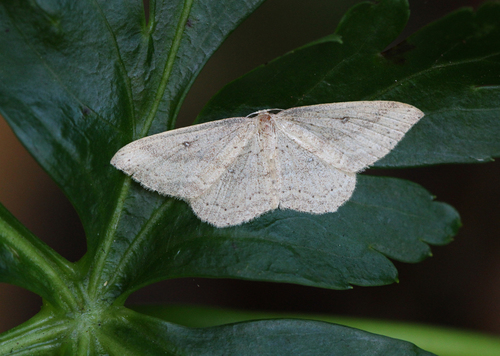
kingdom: Animalia
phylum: Arthropoda
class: Insecta
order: Lepidoptera
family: Geometridae
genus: Cyclophora
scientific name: Cyclophora maderensis
